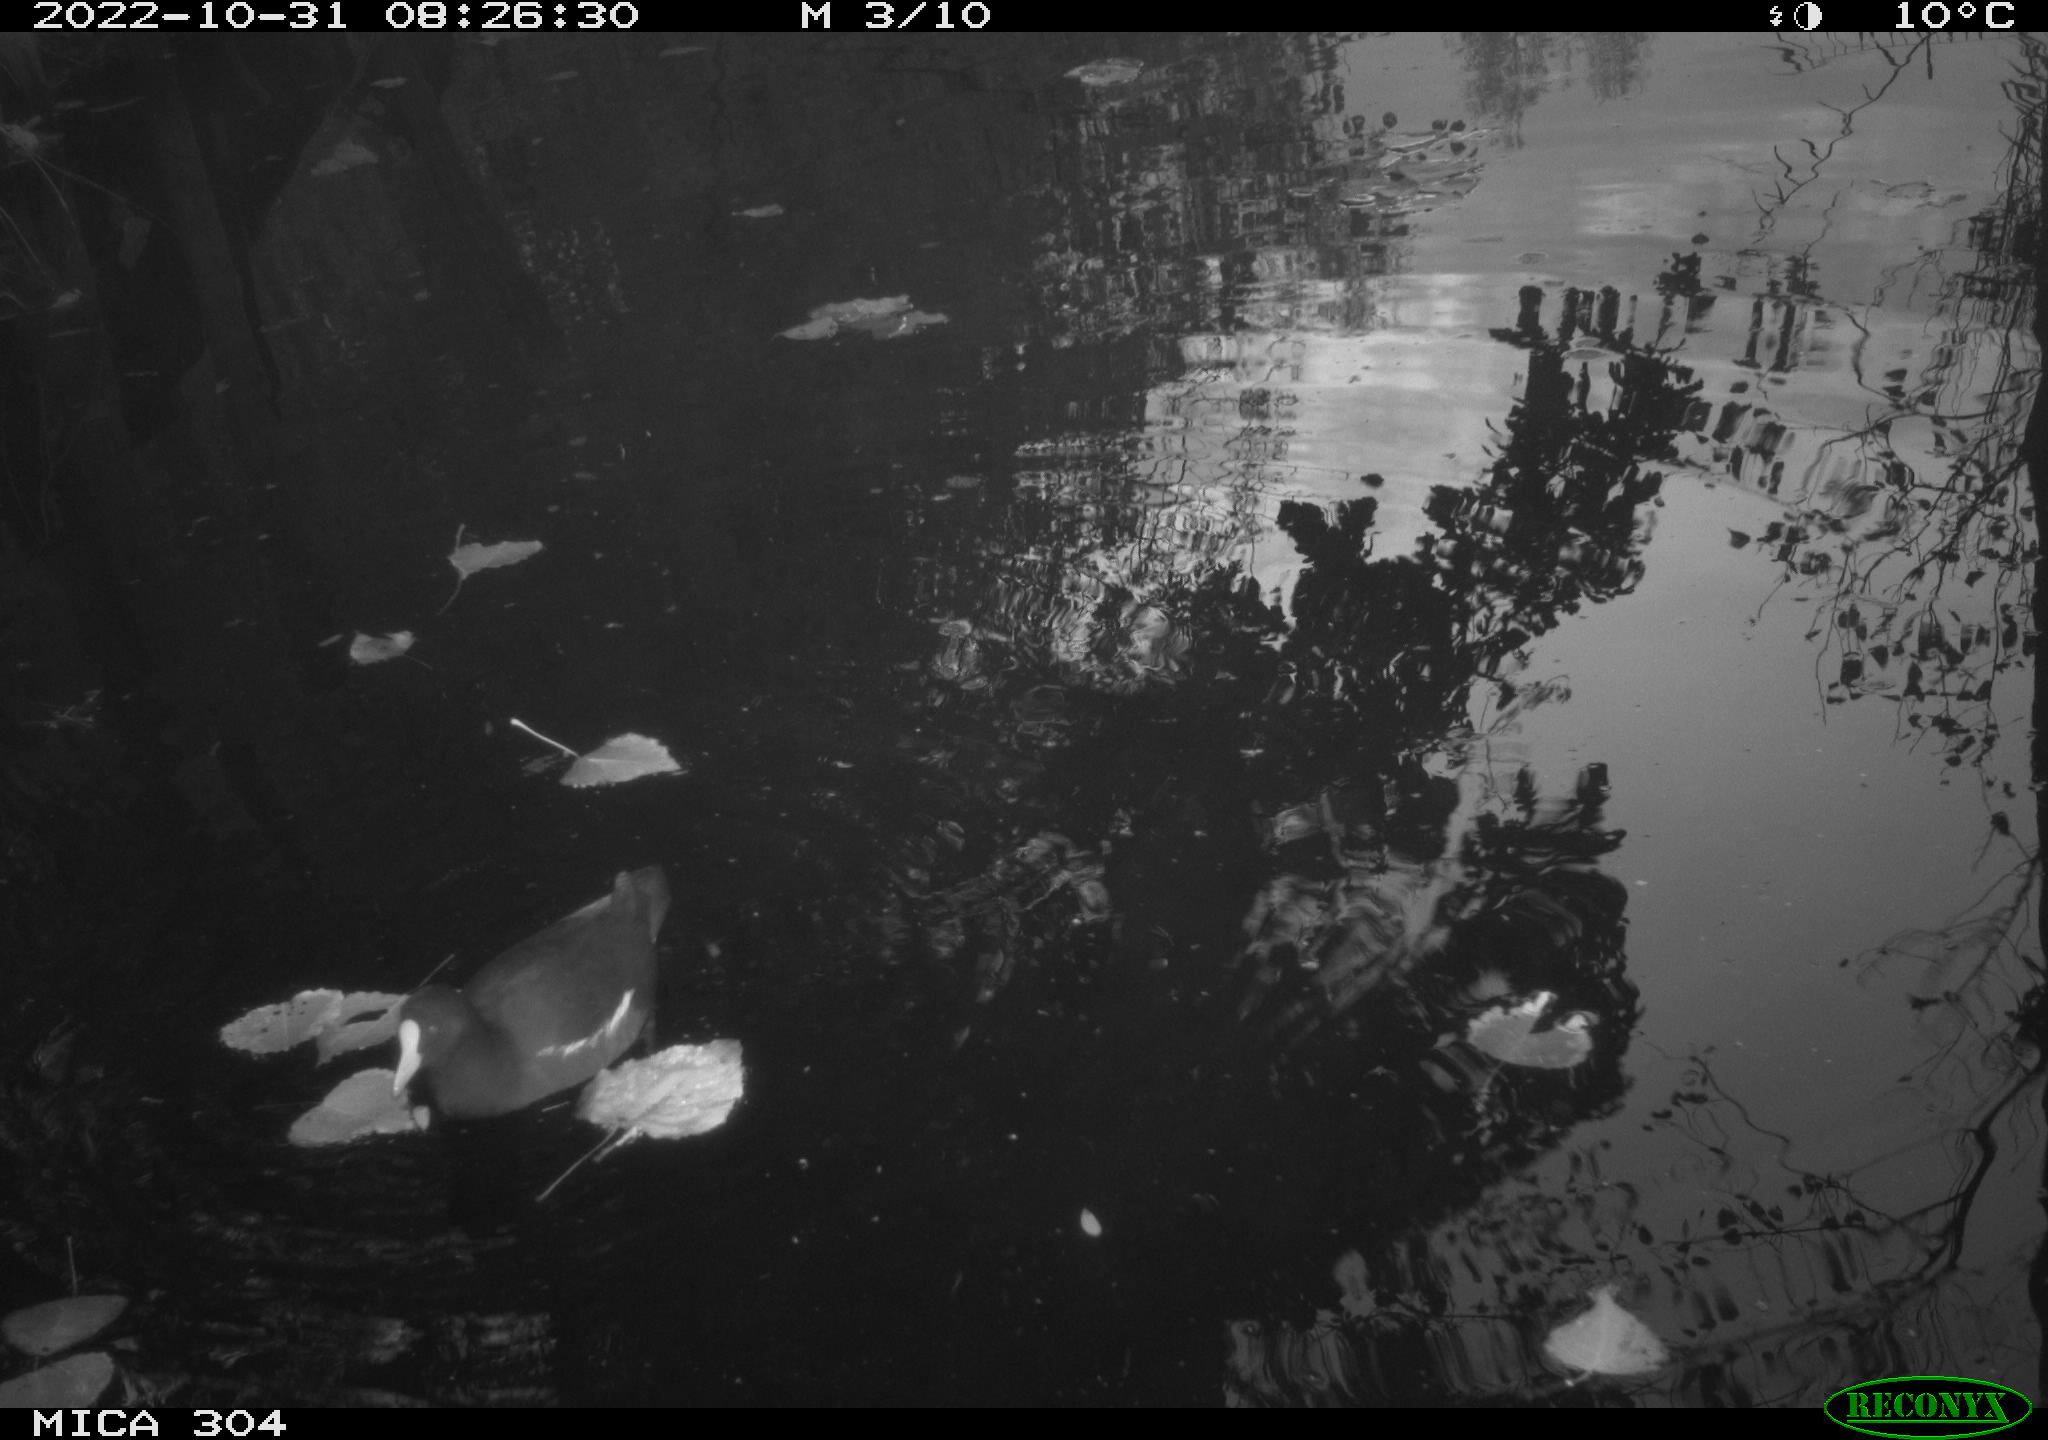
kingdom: Animalia
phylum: Chordata
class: Aves
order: Gruiformes
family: Rallidae
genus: Gallinula
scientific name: Gallinula chloropus
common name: Common moorhen
